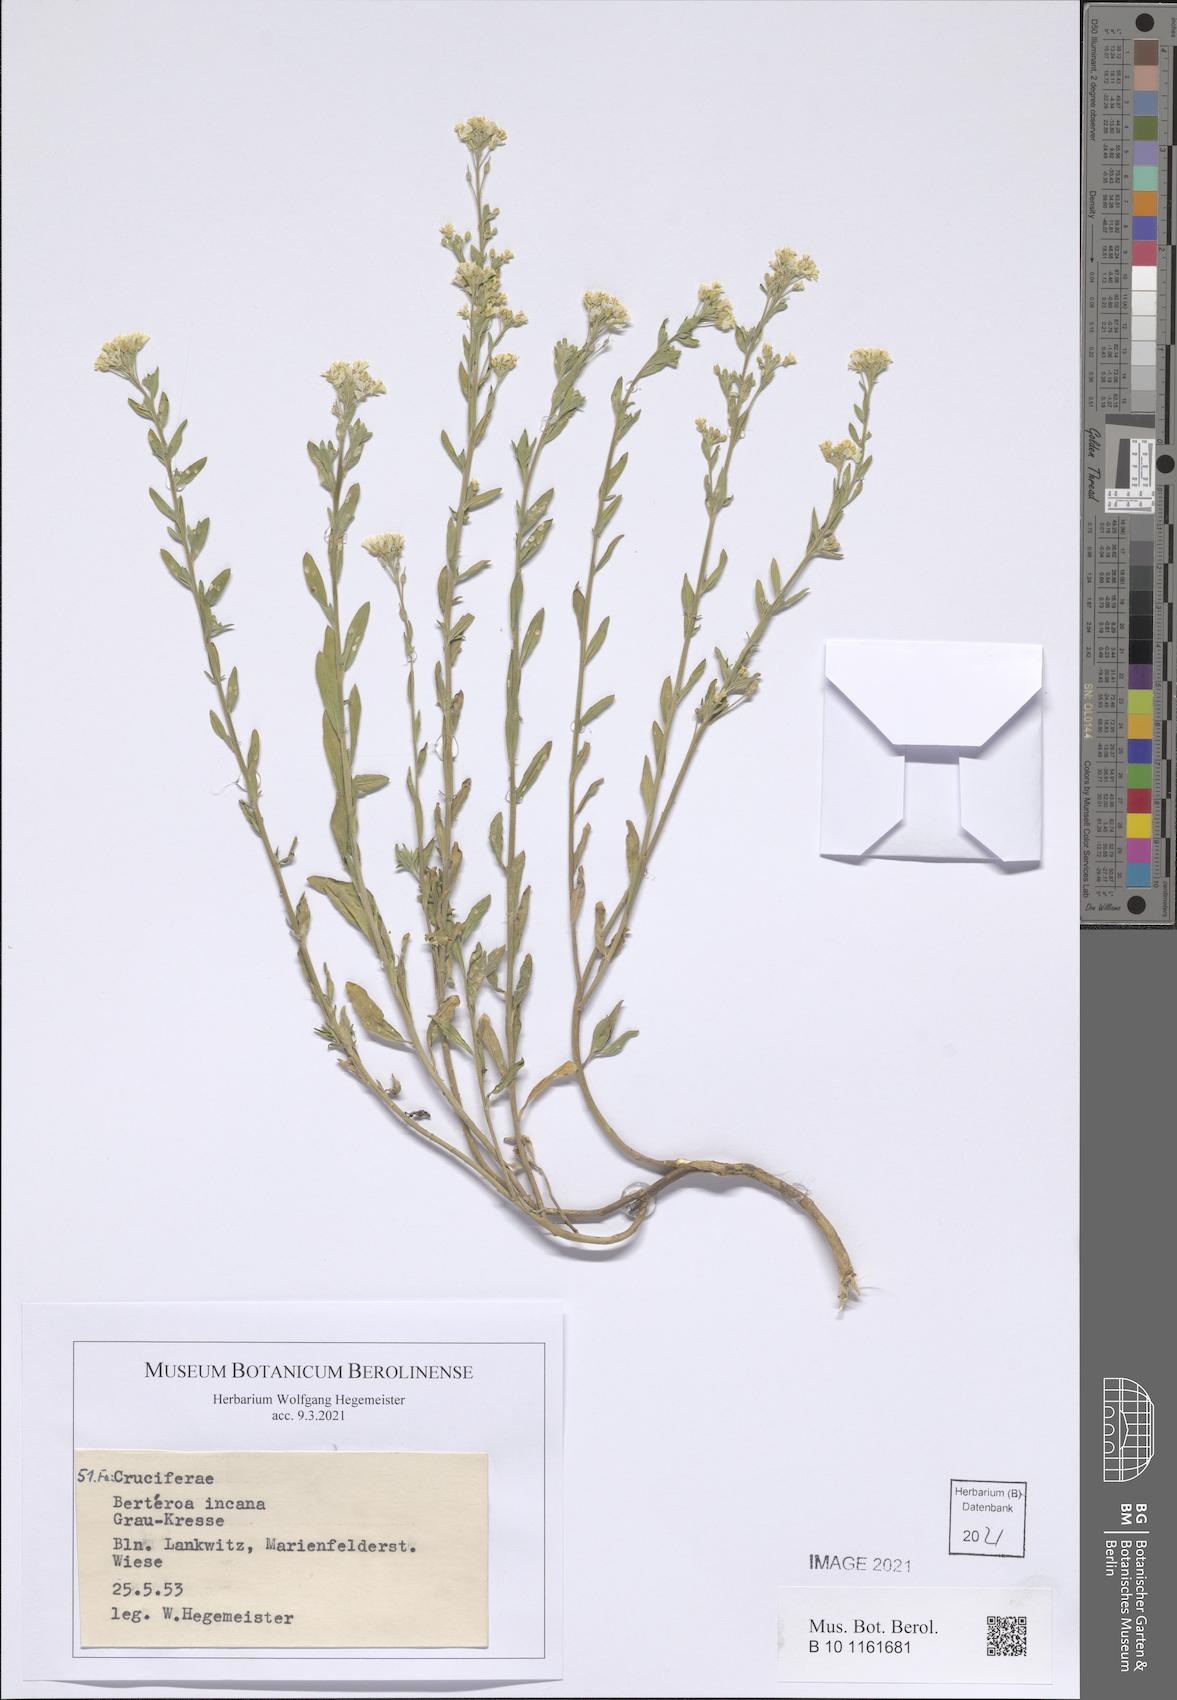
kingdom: Plantae
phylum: Tracheophyta
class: Magnoliopsida
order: Brassicales
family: Brassicaceae
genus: Berteroa
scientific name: Berteroa incana
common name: Hoary alison
